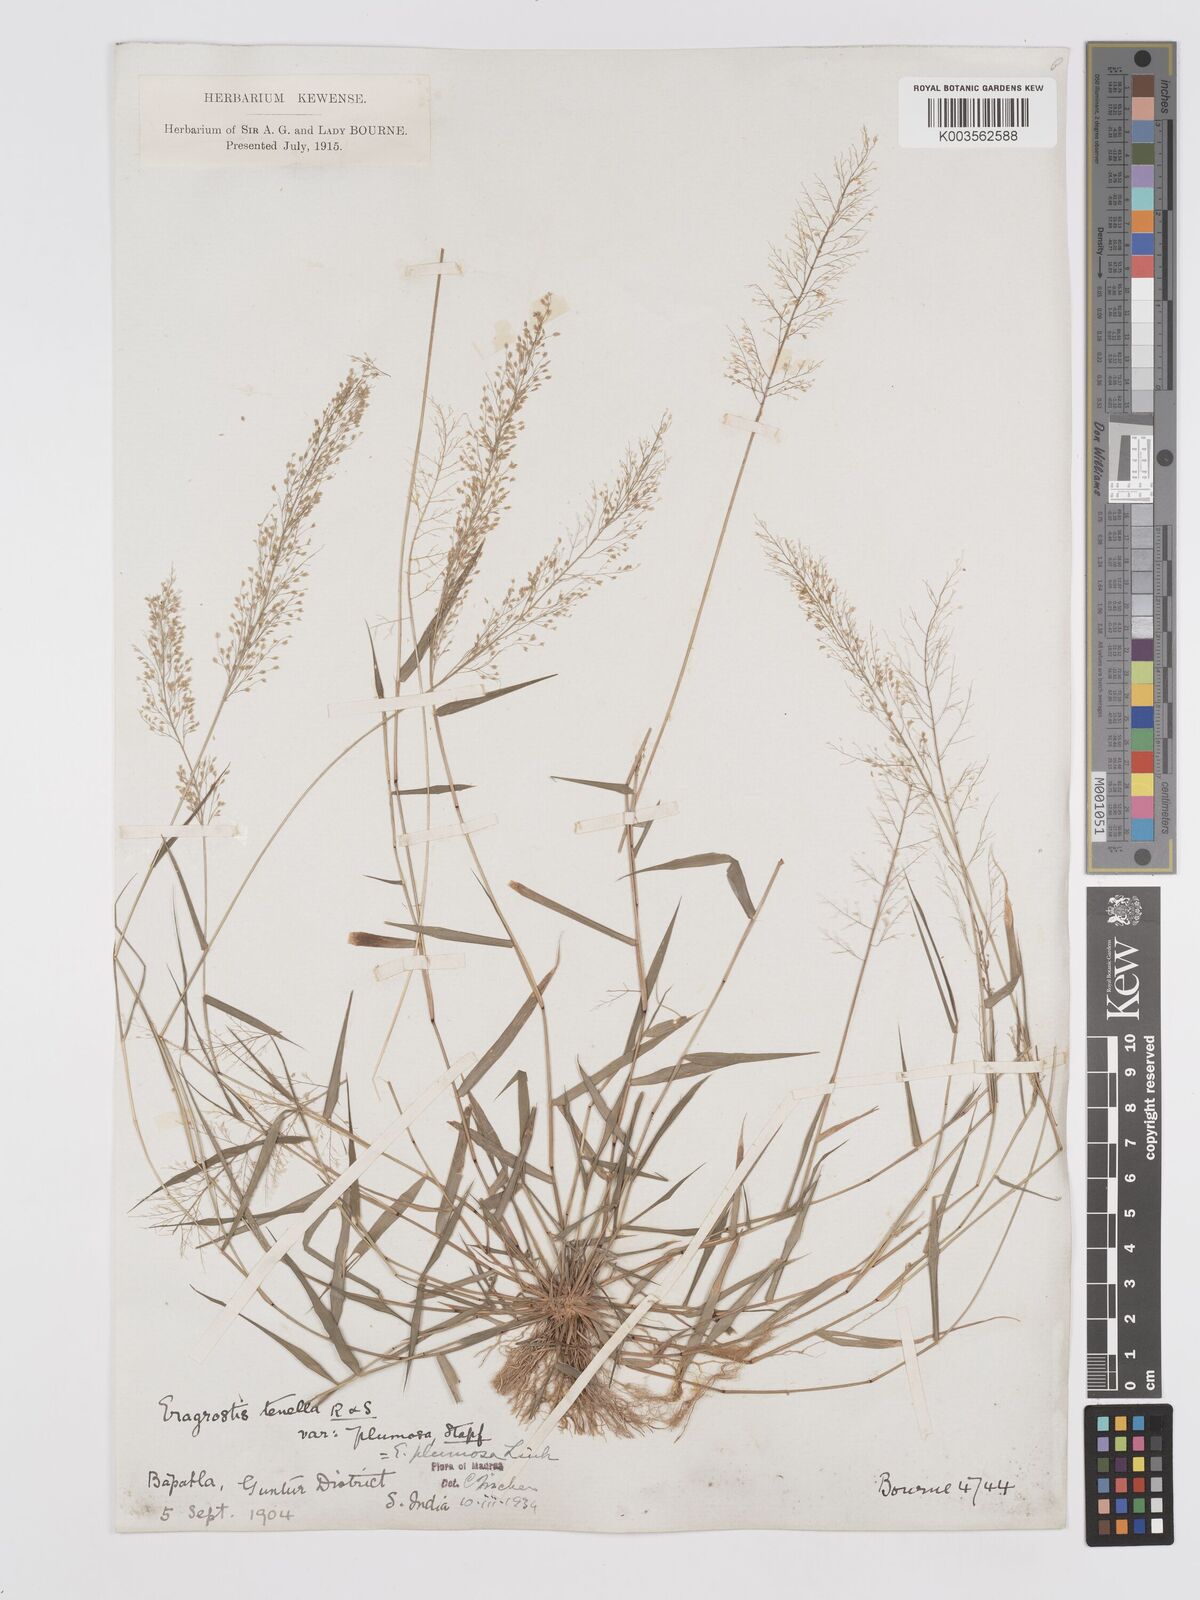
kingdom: Plantae
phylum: Tracheophyta
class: Liliopsida
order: Poales
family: Poaceae
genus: Eragrostis
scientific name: Eragrostis tenella
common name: Japanese lovegrass
